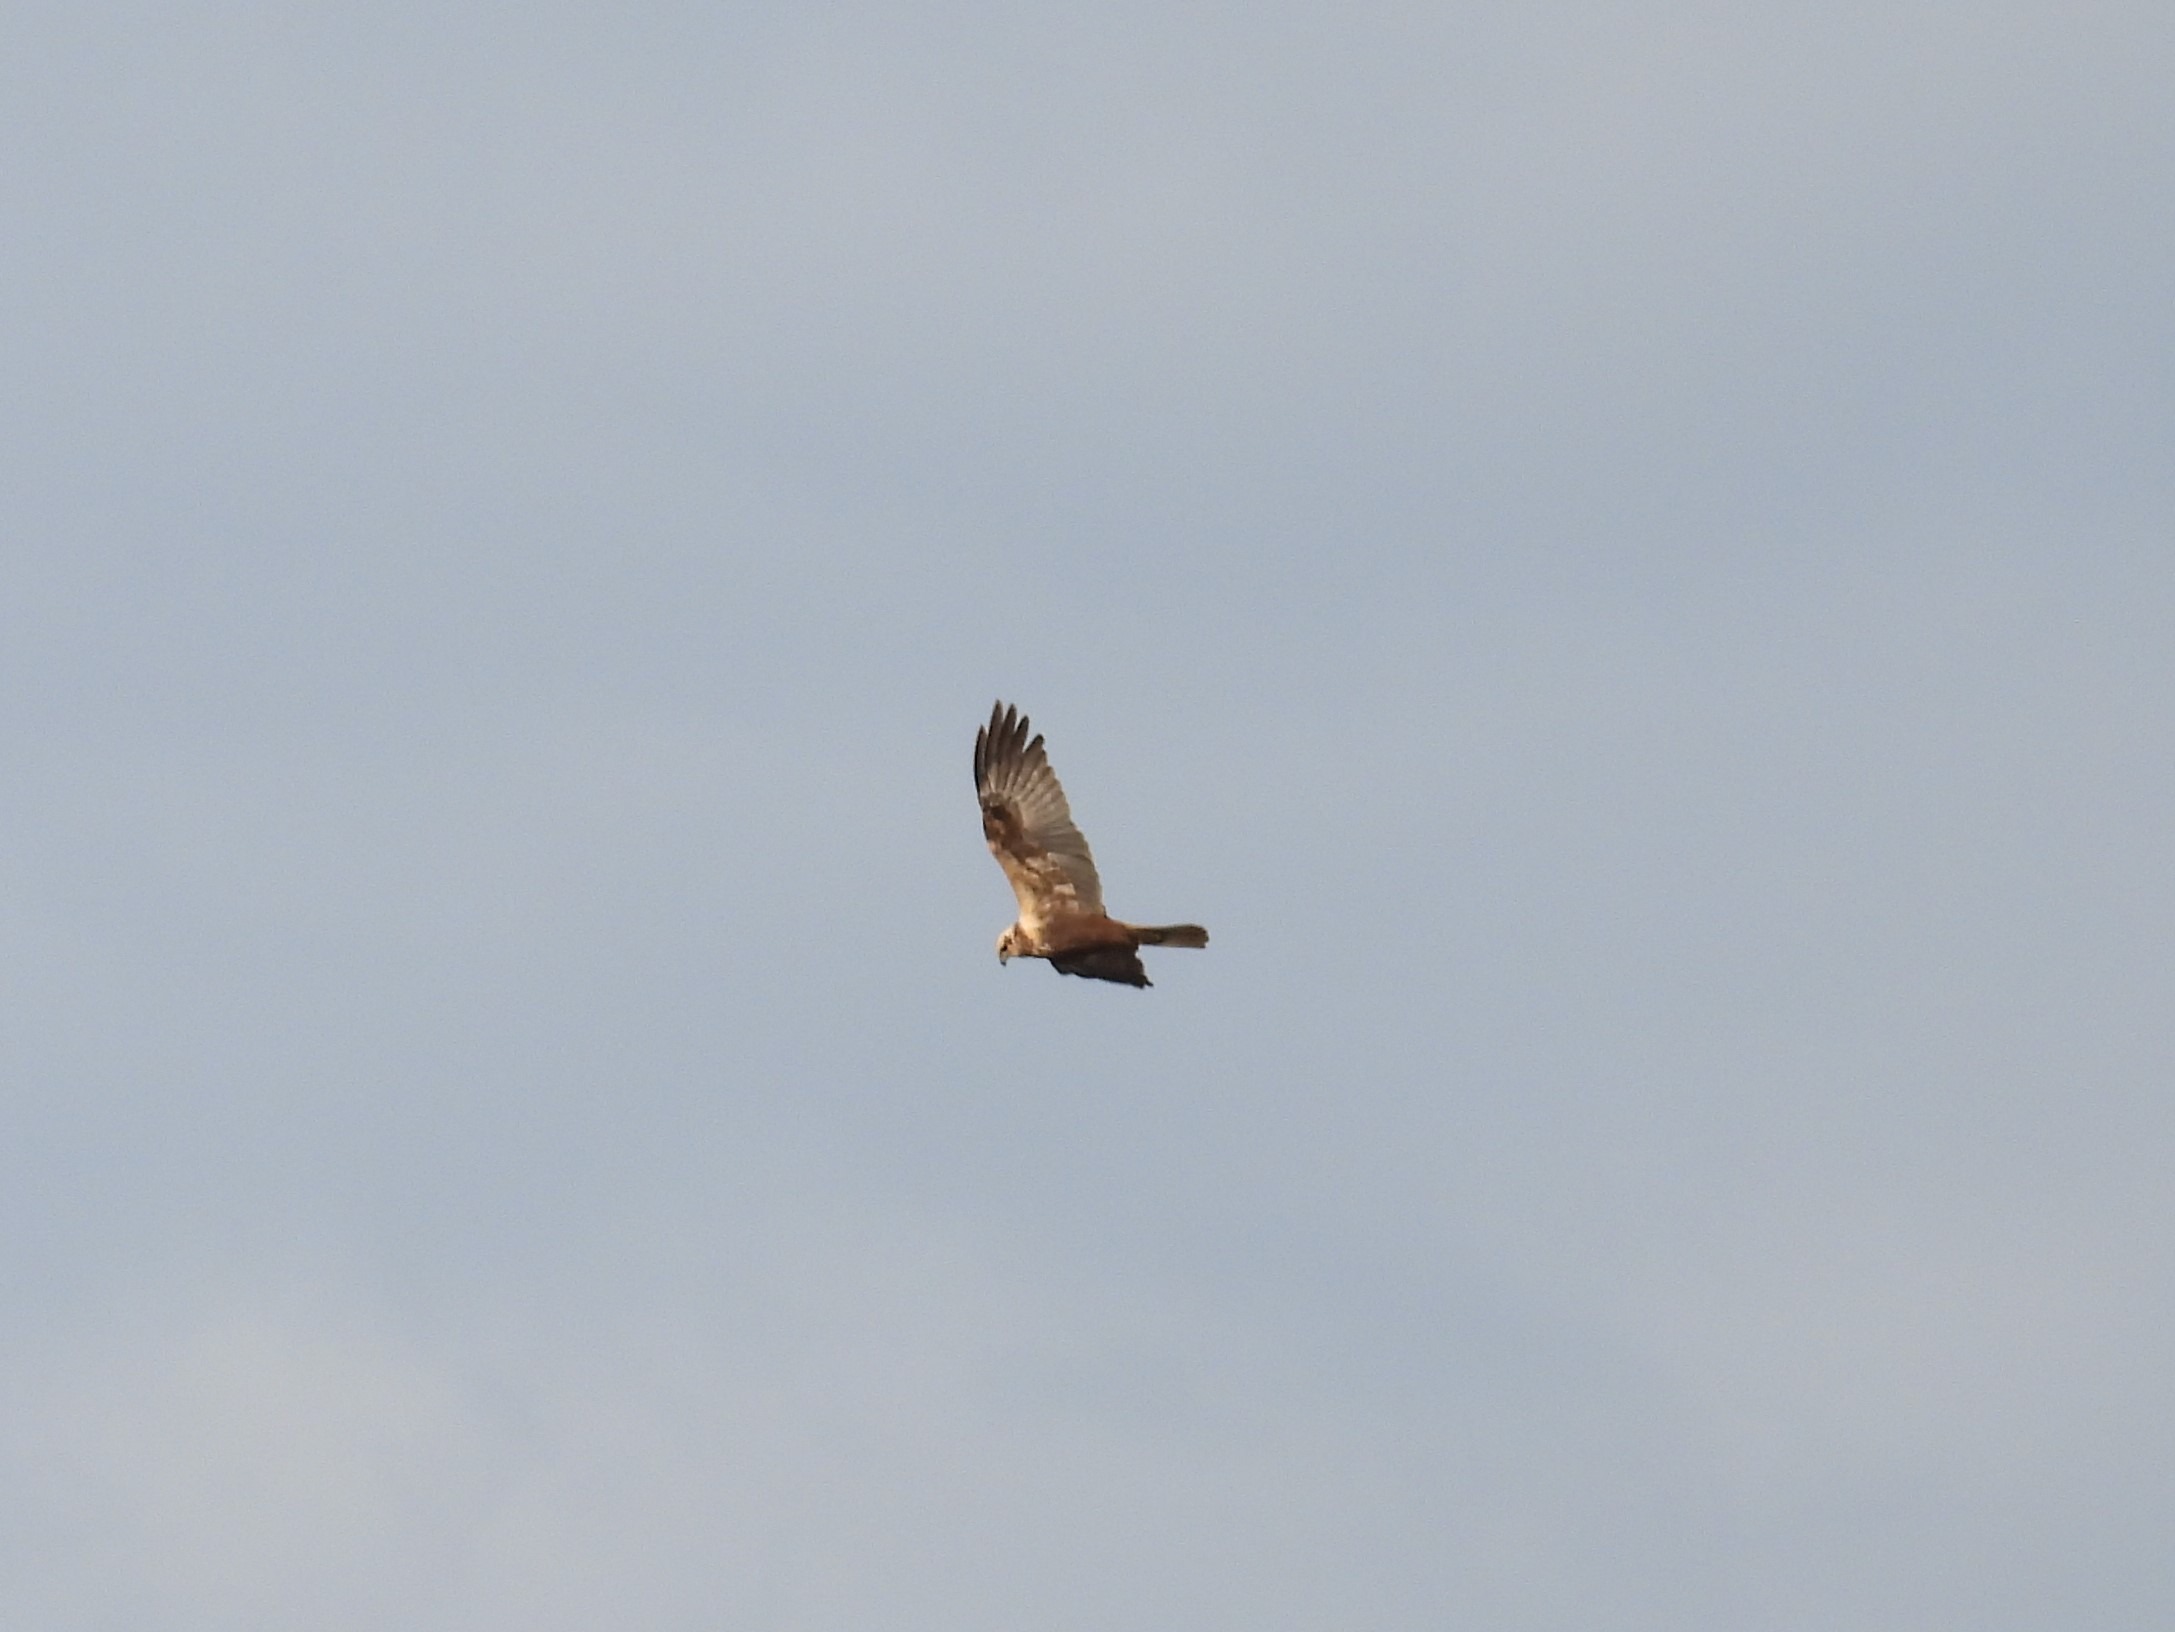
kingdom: Animalia
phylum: Chordata
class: Aves
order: Accipitriformes
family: Accipitridae
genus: Circus
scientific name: Circus aeruginosus
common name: Rørhøg
